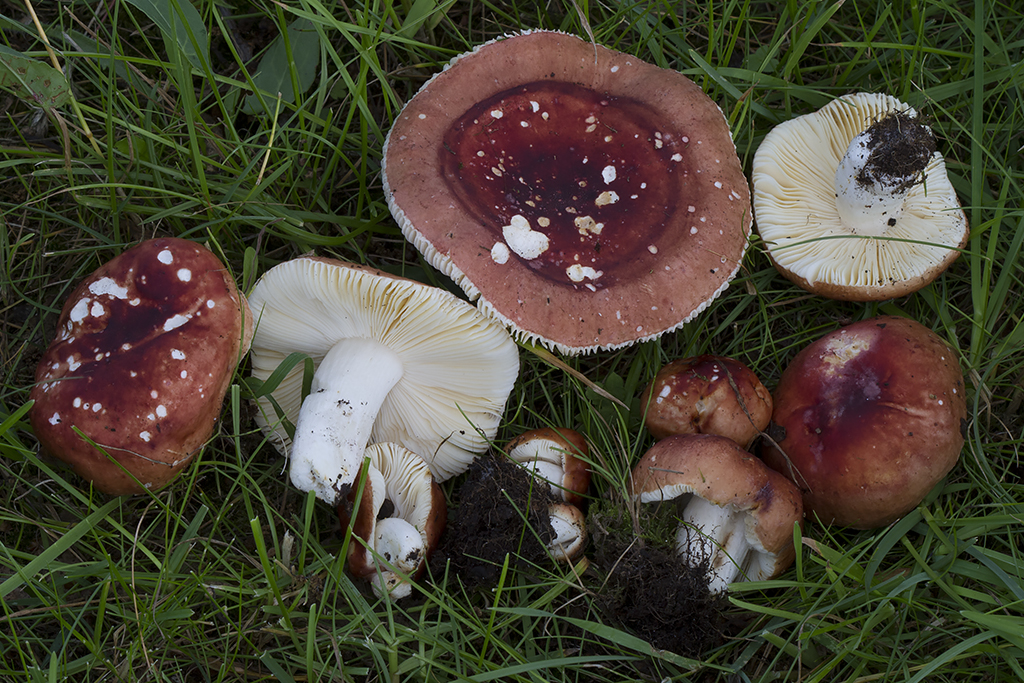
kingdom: Fungi
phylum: Basidiomycota
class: Agaricomycetes
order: Russulales
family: Russulaceae
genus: Russula
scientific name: Russula fontqueri
